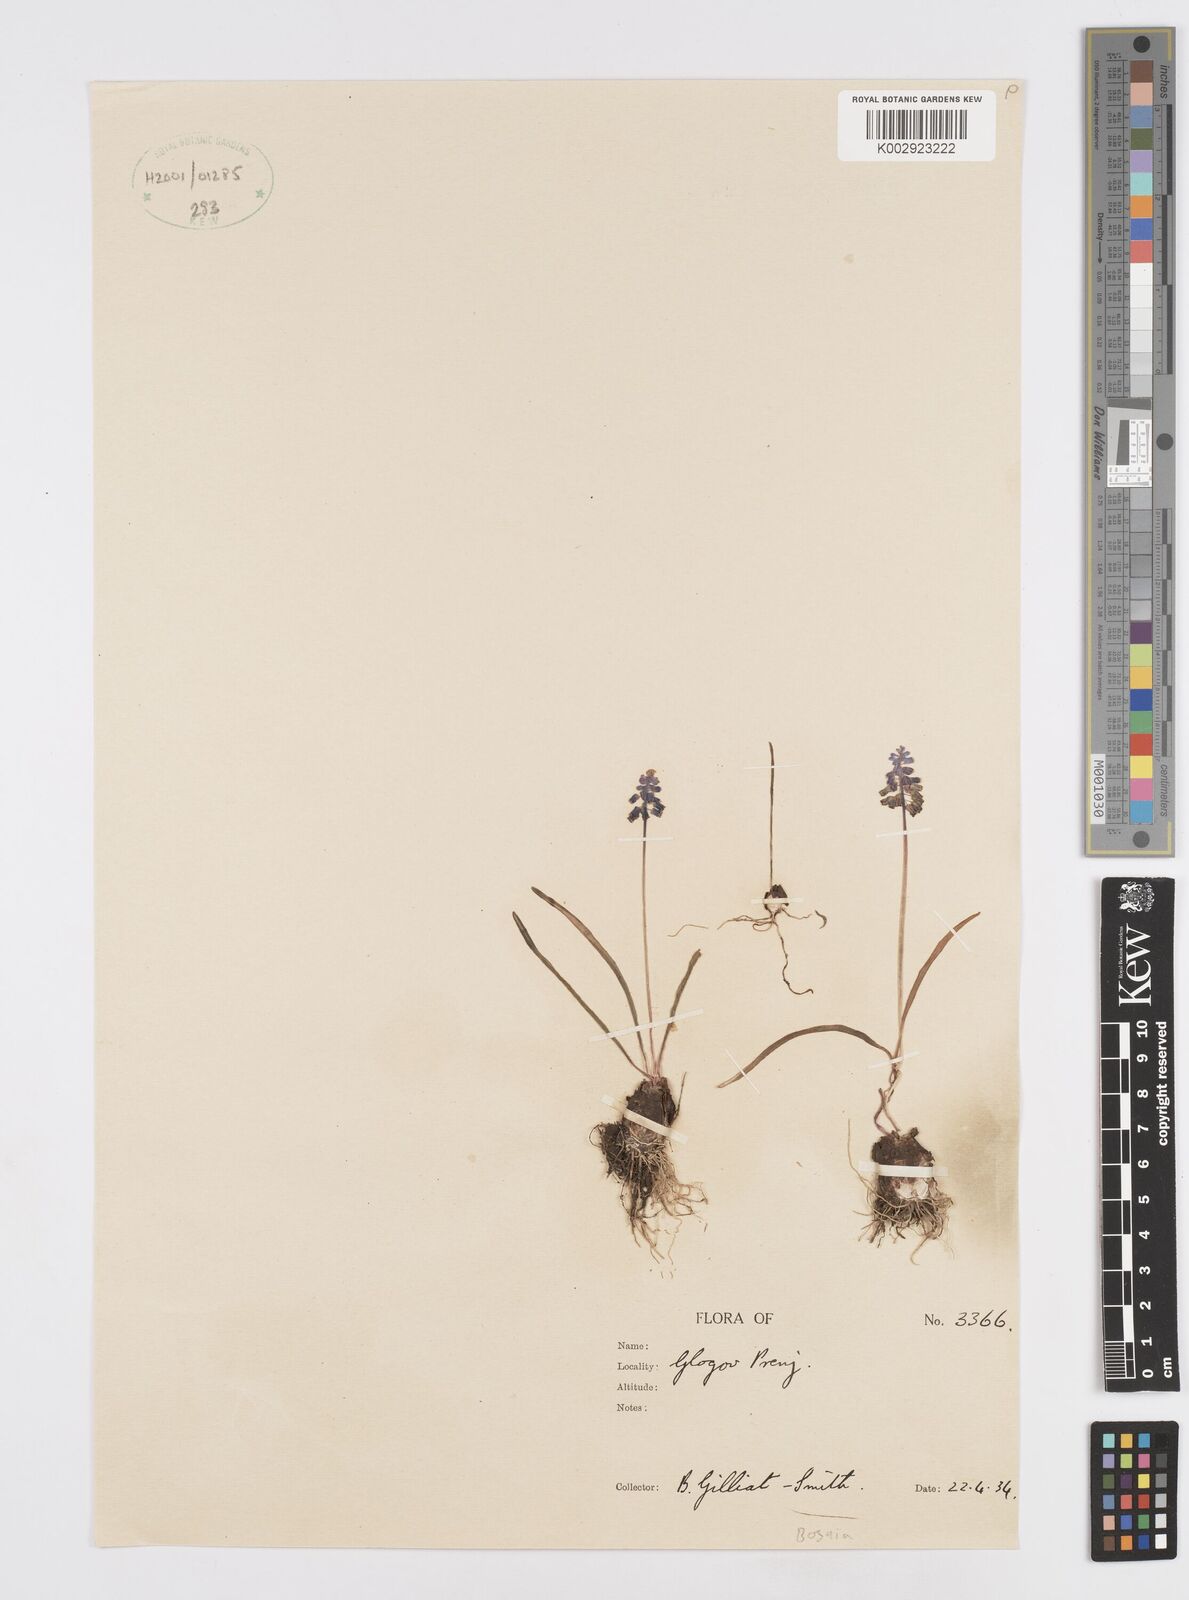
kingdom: Plantae
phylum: Tracheophyta
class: Liliopsida
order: Asparagales
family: Asparagaceae
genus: Muscari
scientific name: Muscari
